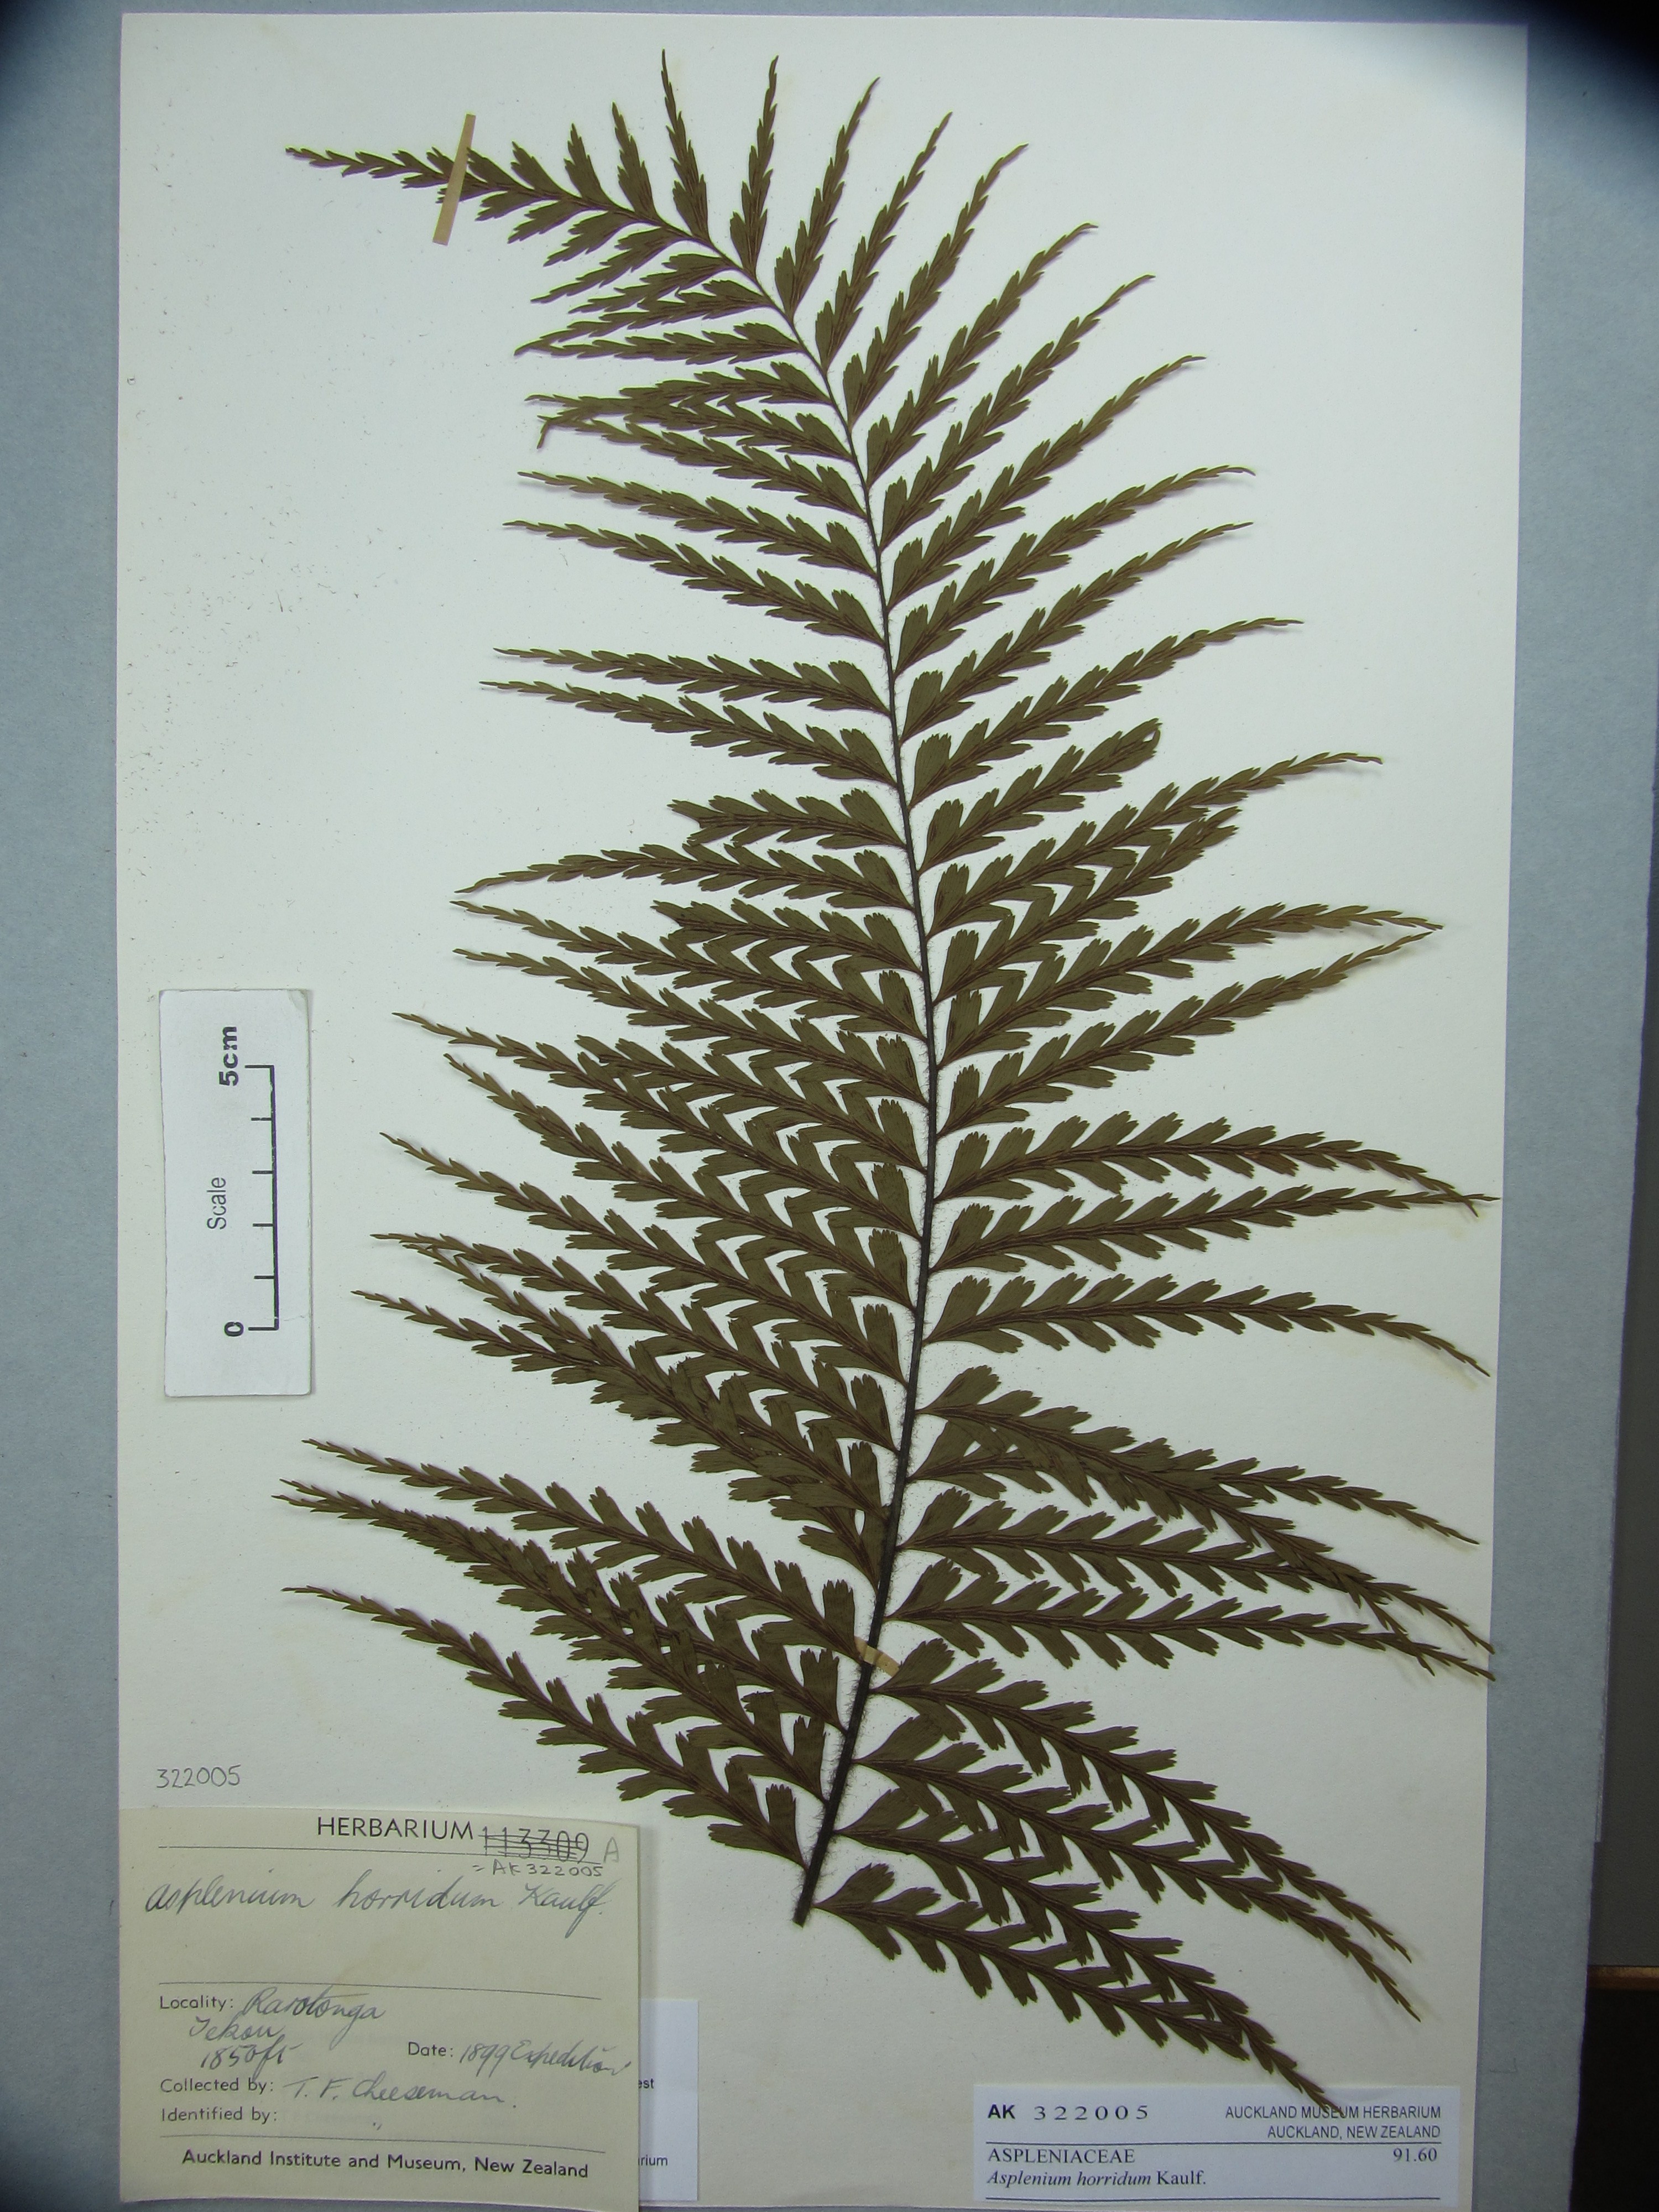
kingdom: Plantae
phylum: Tracheophyta
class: Polypodiopsida
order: Polypodiales
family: Aspleniaceae
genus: Asplenium
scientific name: Asplenium horridum
